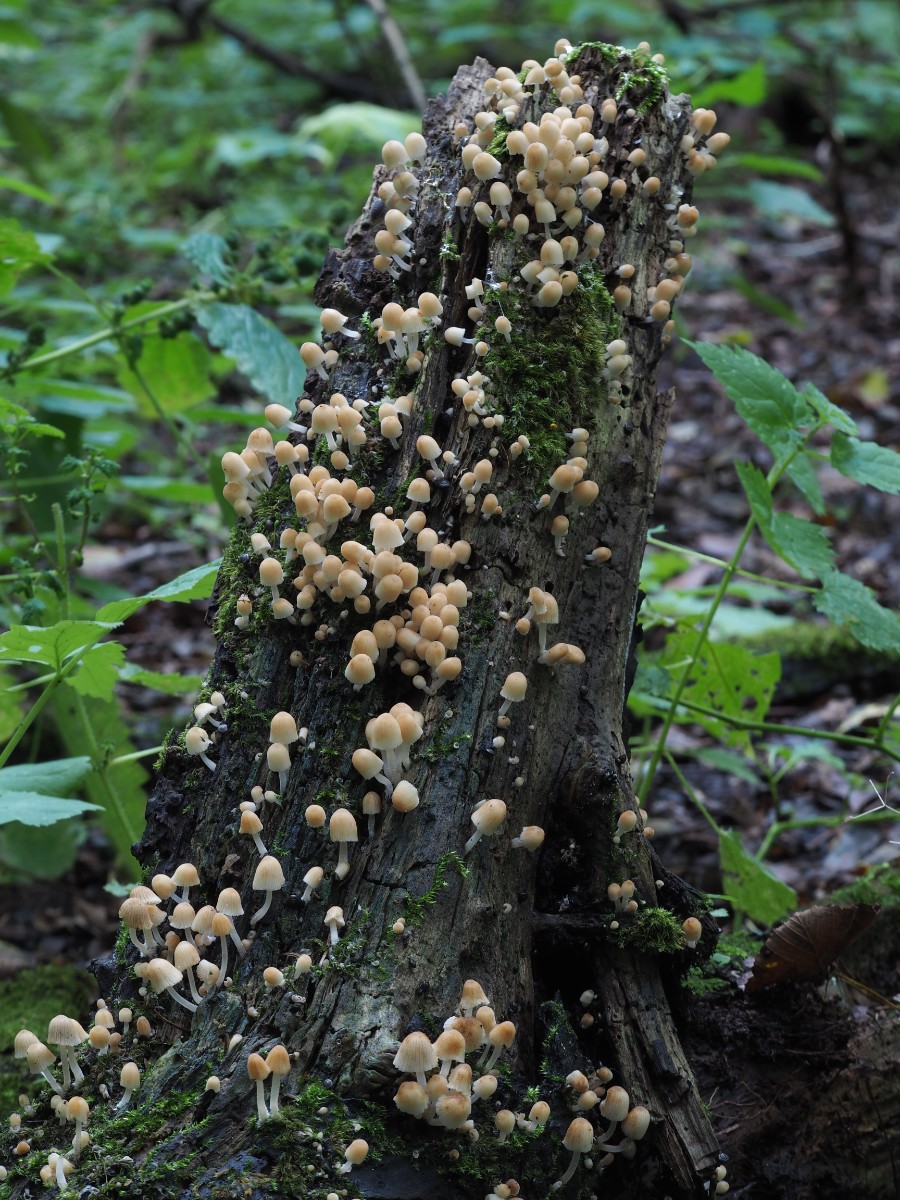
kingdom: Fungi
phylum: Basidiomycota
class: Agaricomycetes
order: Agaricales
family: Psathyrellaceae
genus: Coprinellus
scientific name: Coprinellus disseminatus
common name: bredsået blækhat
